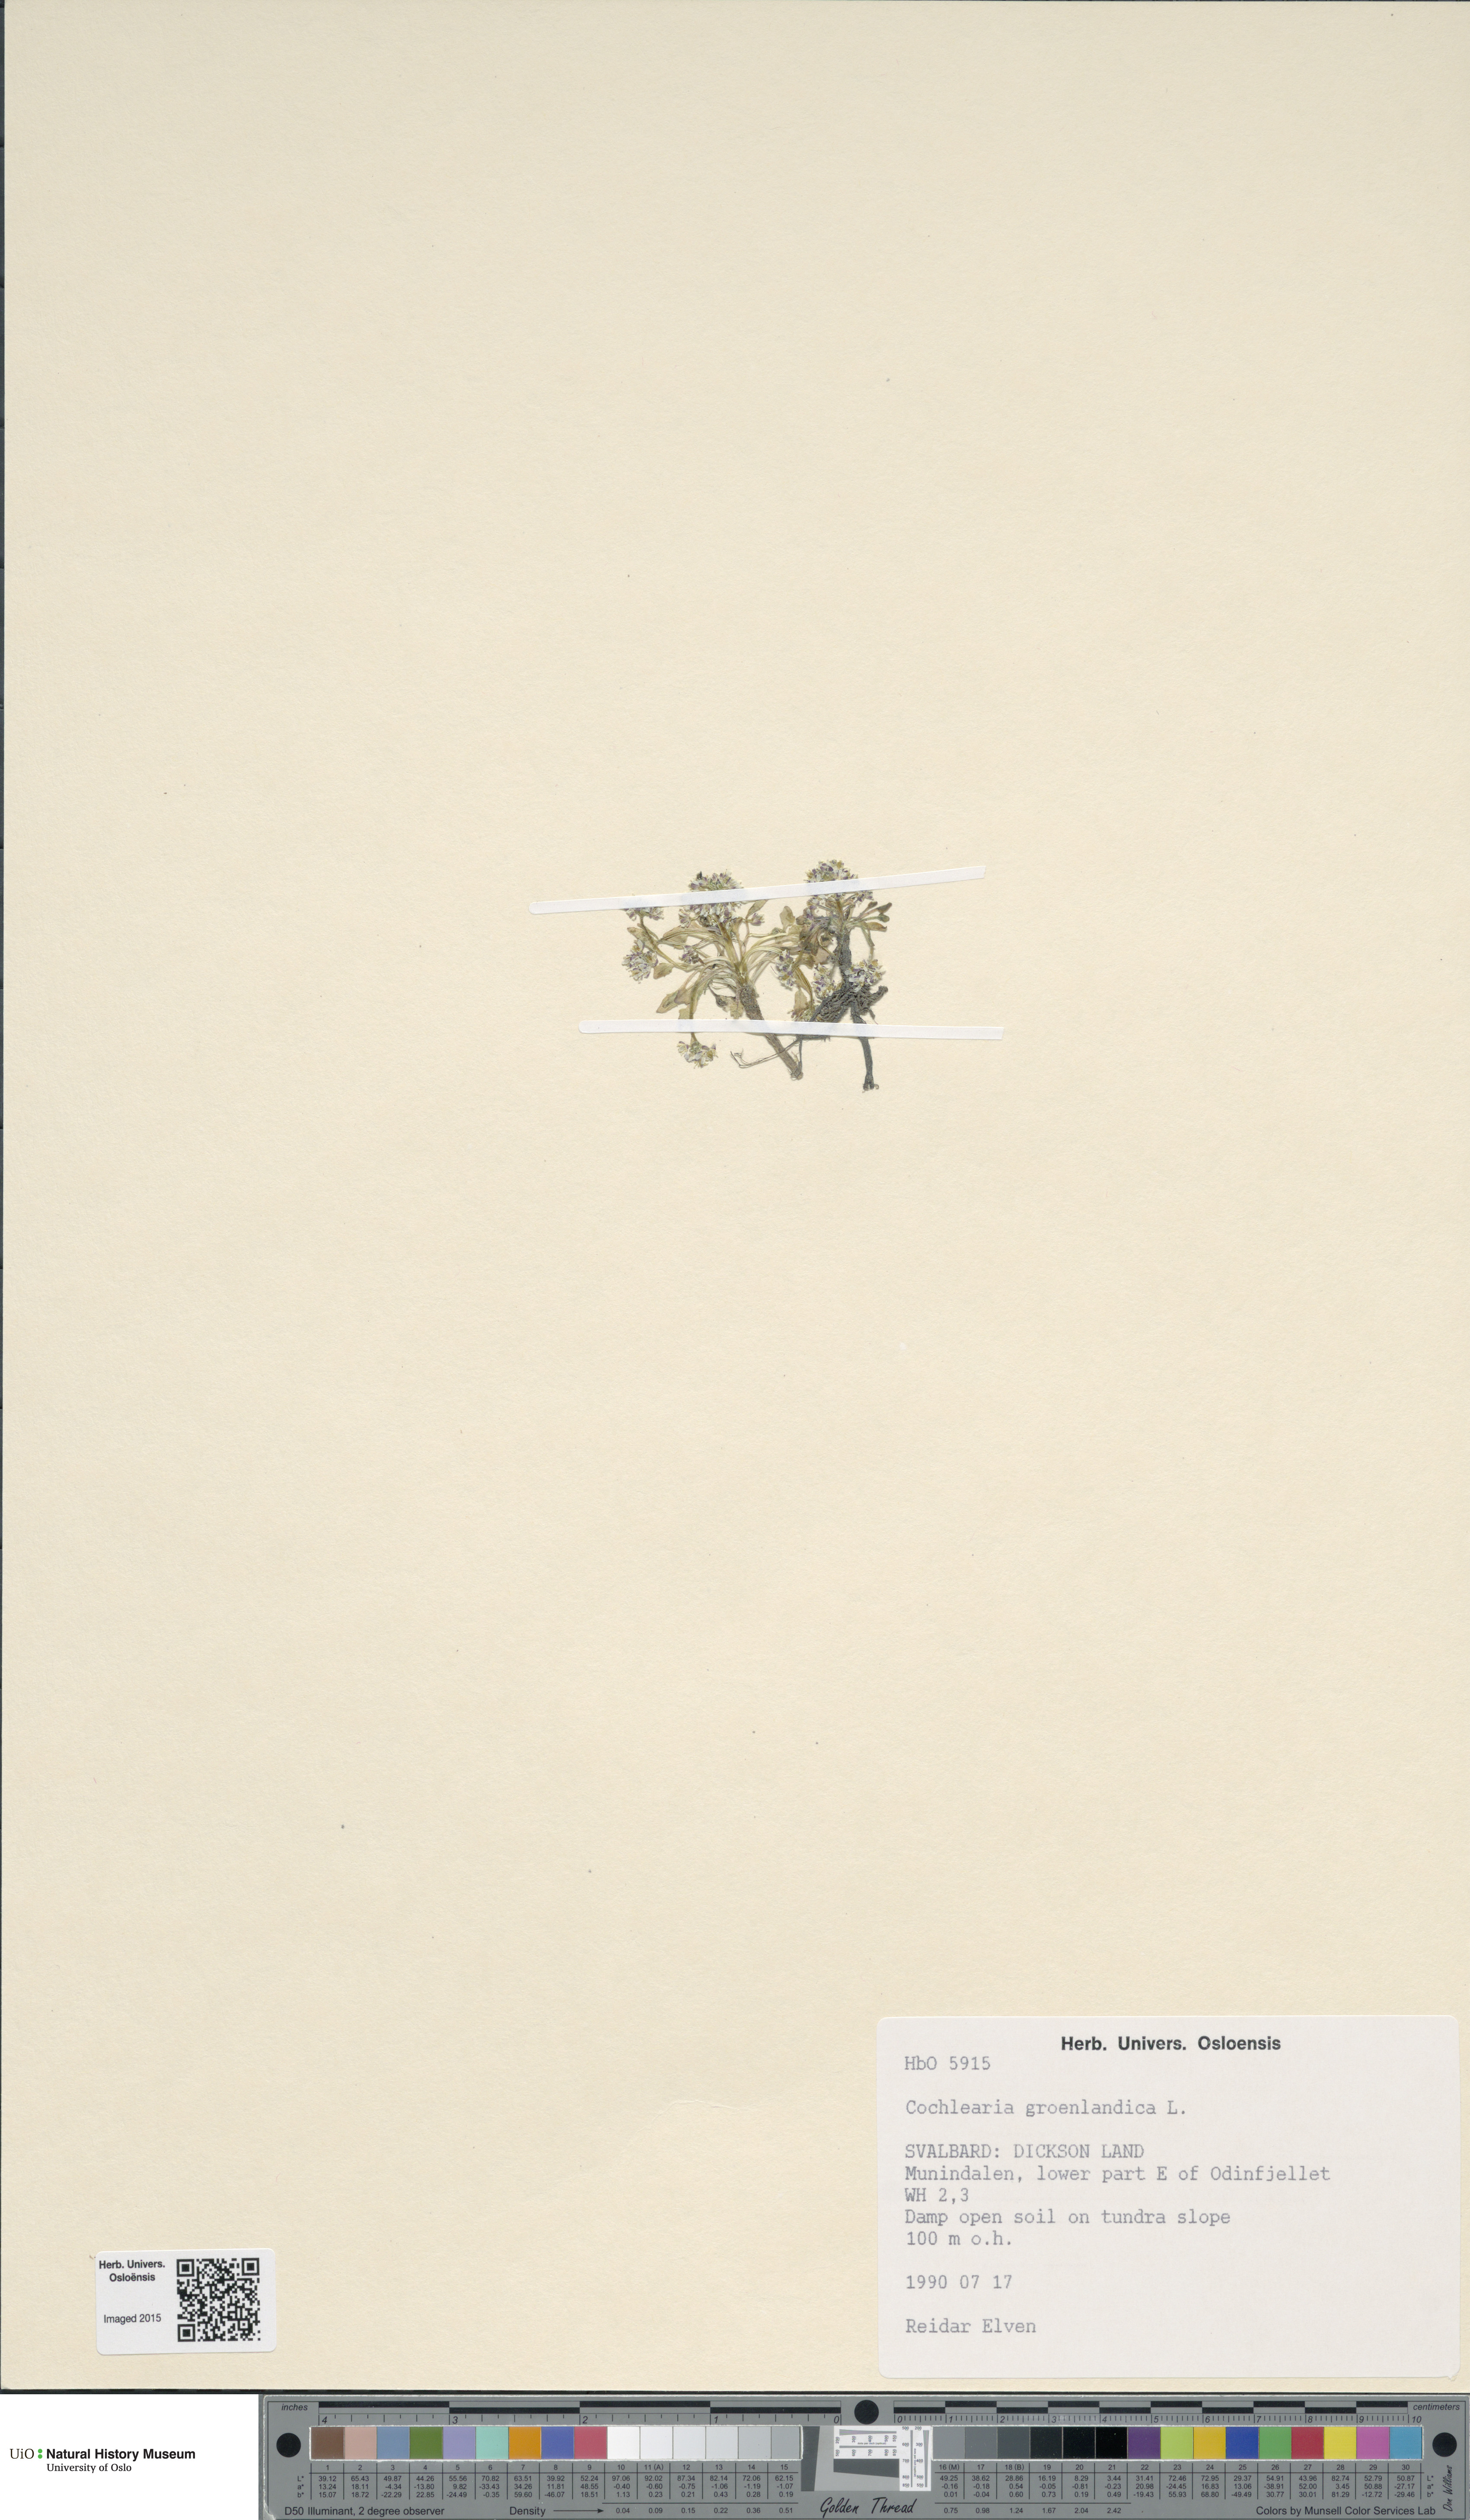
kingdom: Plantae
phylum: Tracheophyta
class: Magnoliopsida
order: Brassicales
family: Brassicaceae
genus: Cochlearia
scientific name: Cochlearia groenlandica
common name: Danish scurvygrass
